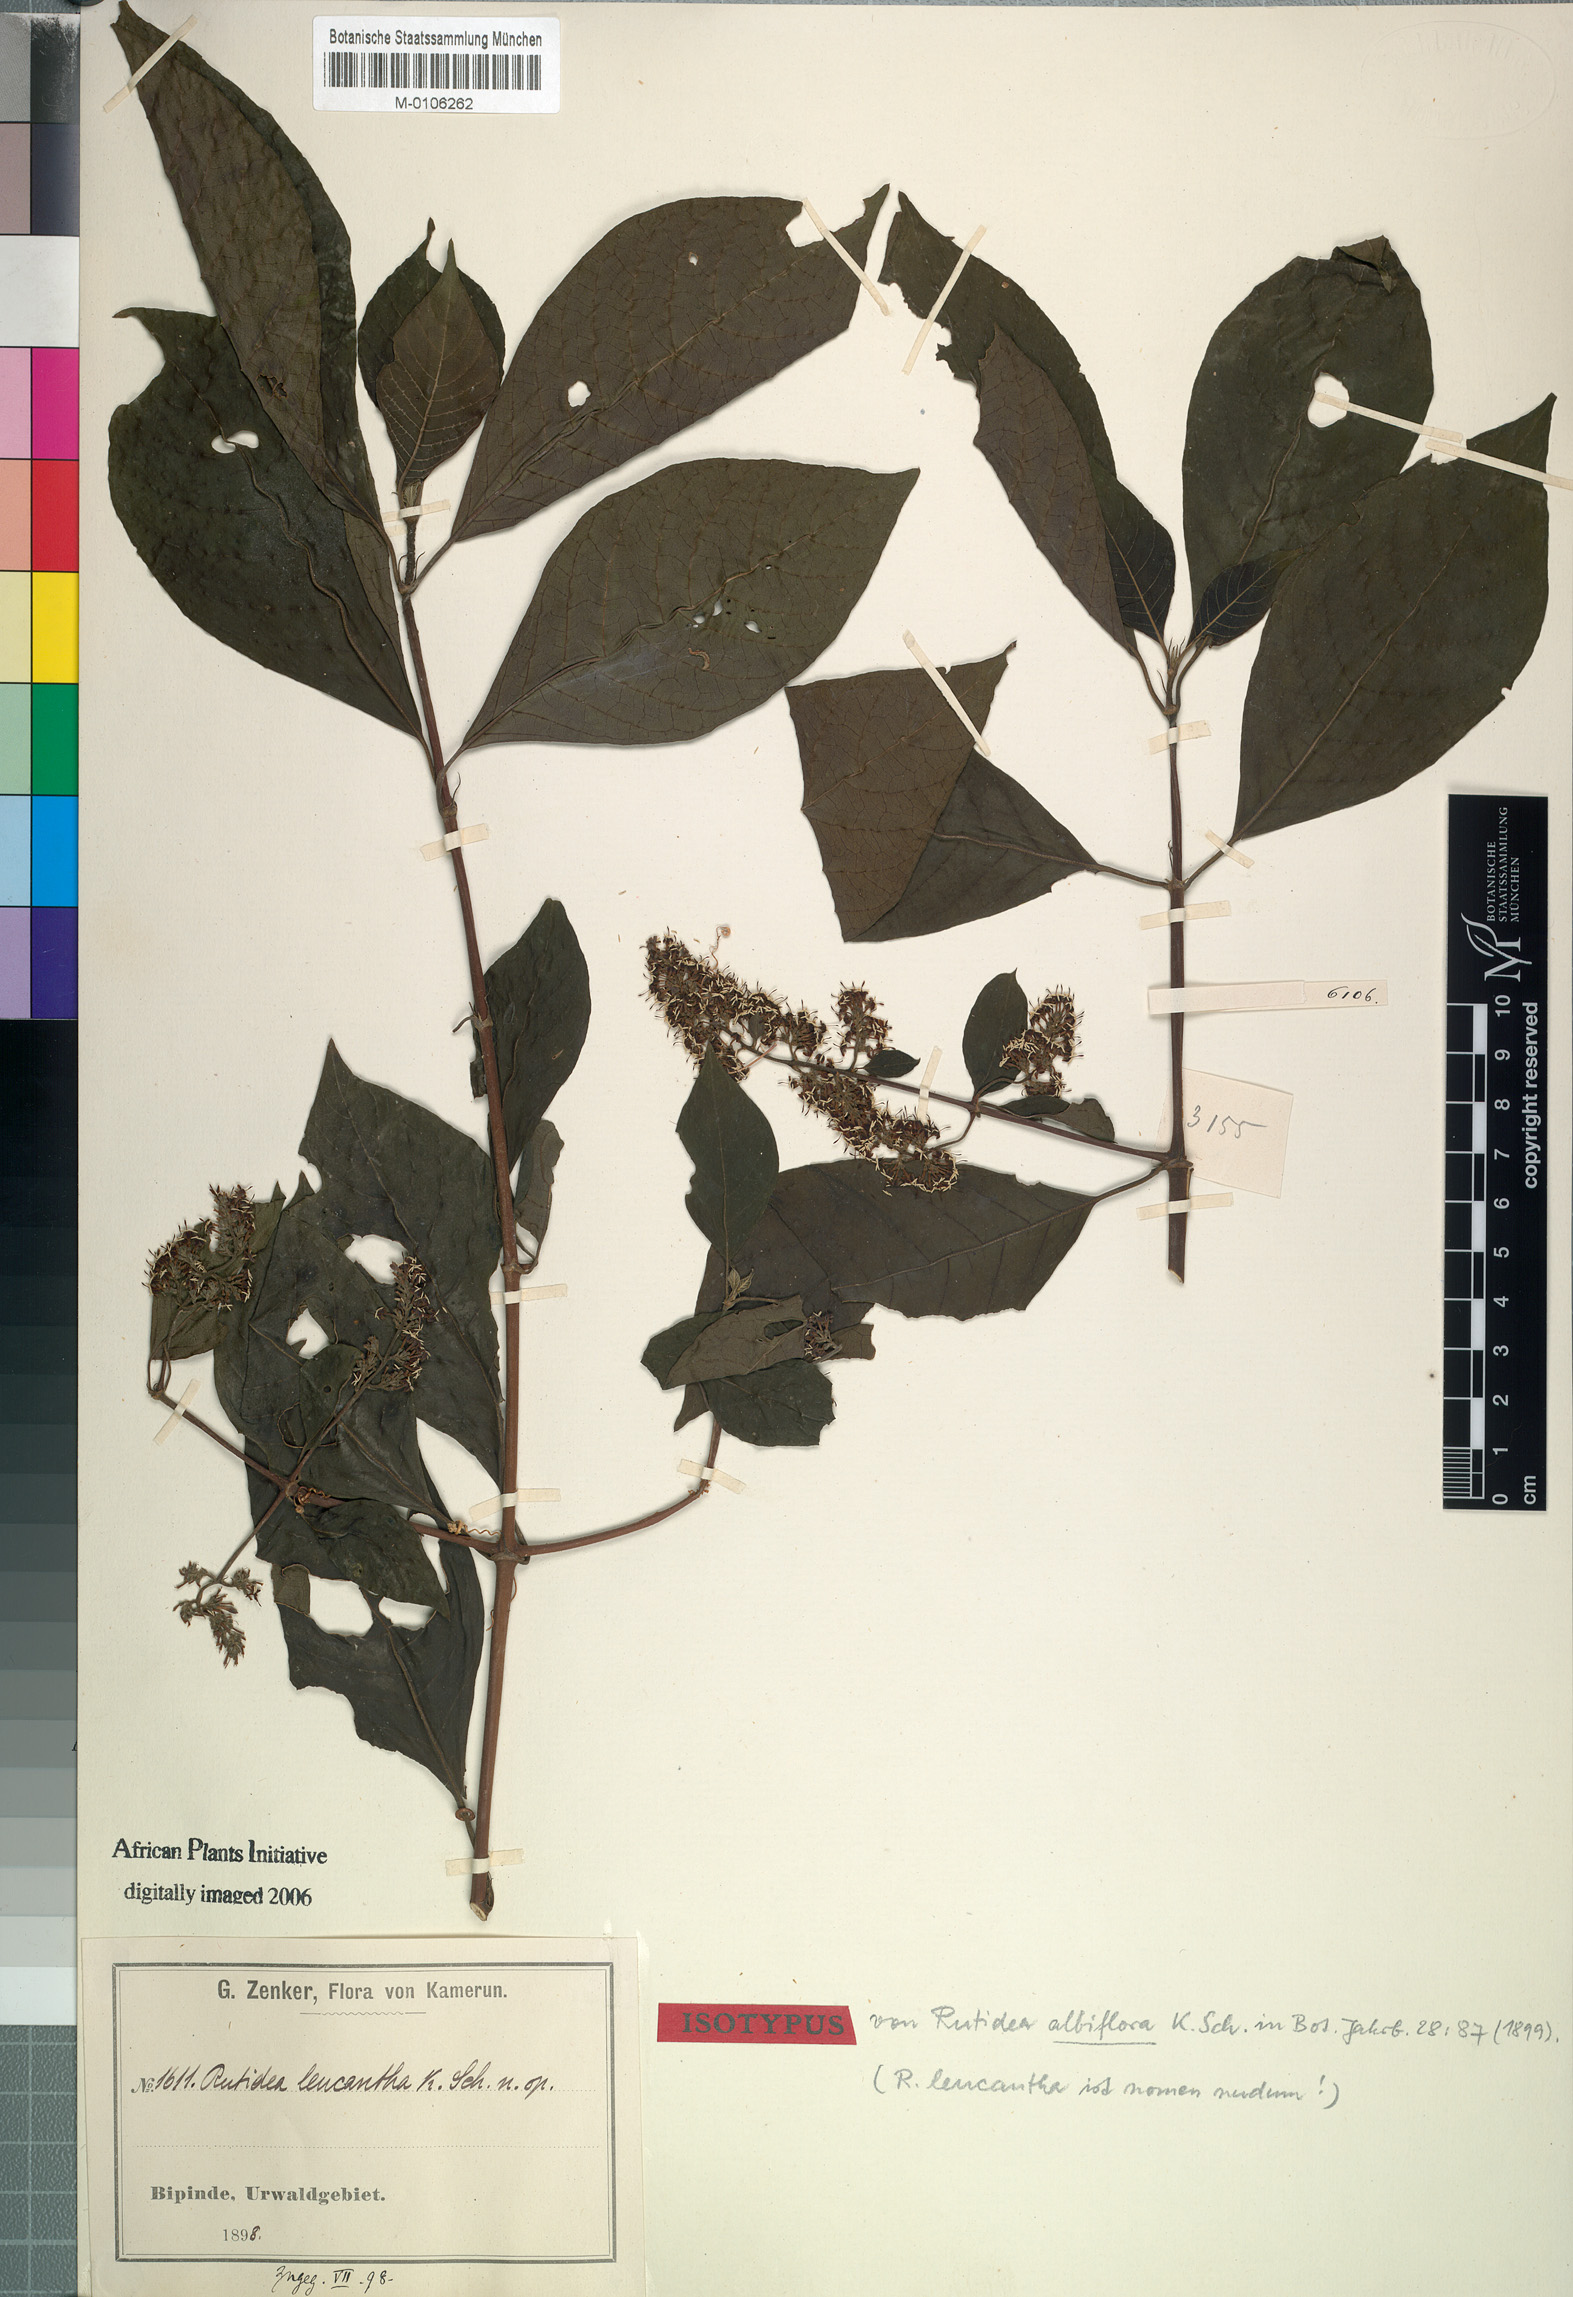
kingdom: Plantae
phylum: Tracheophyta
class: Magnoliopsida
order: Gentianales
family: Rubiaceae
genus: Rutidea
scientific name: Rutidea smithii
